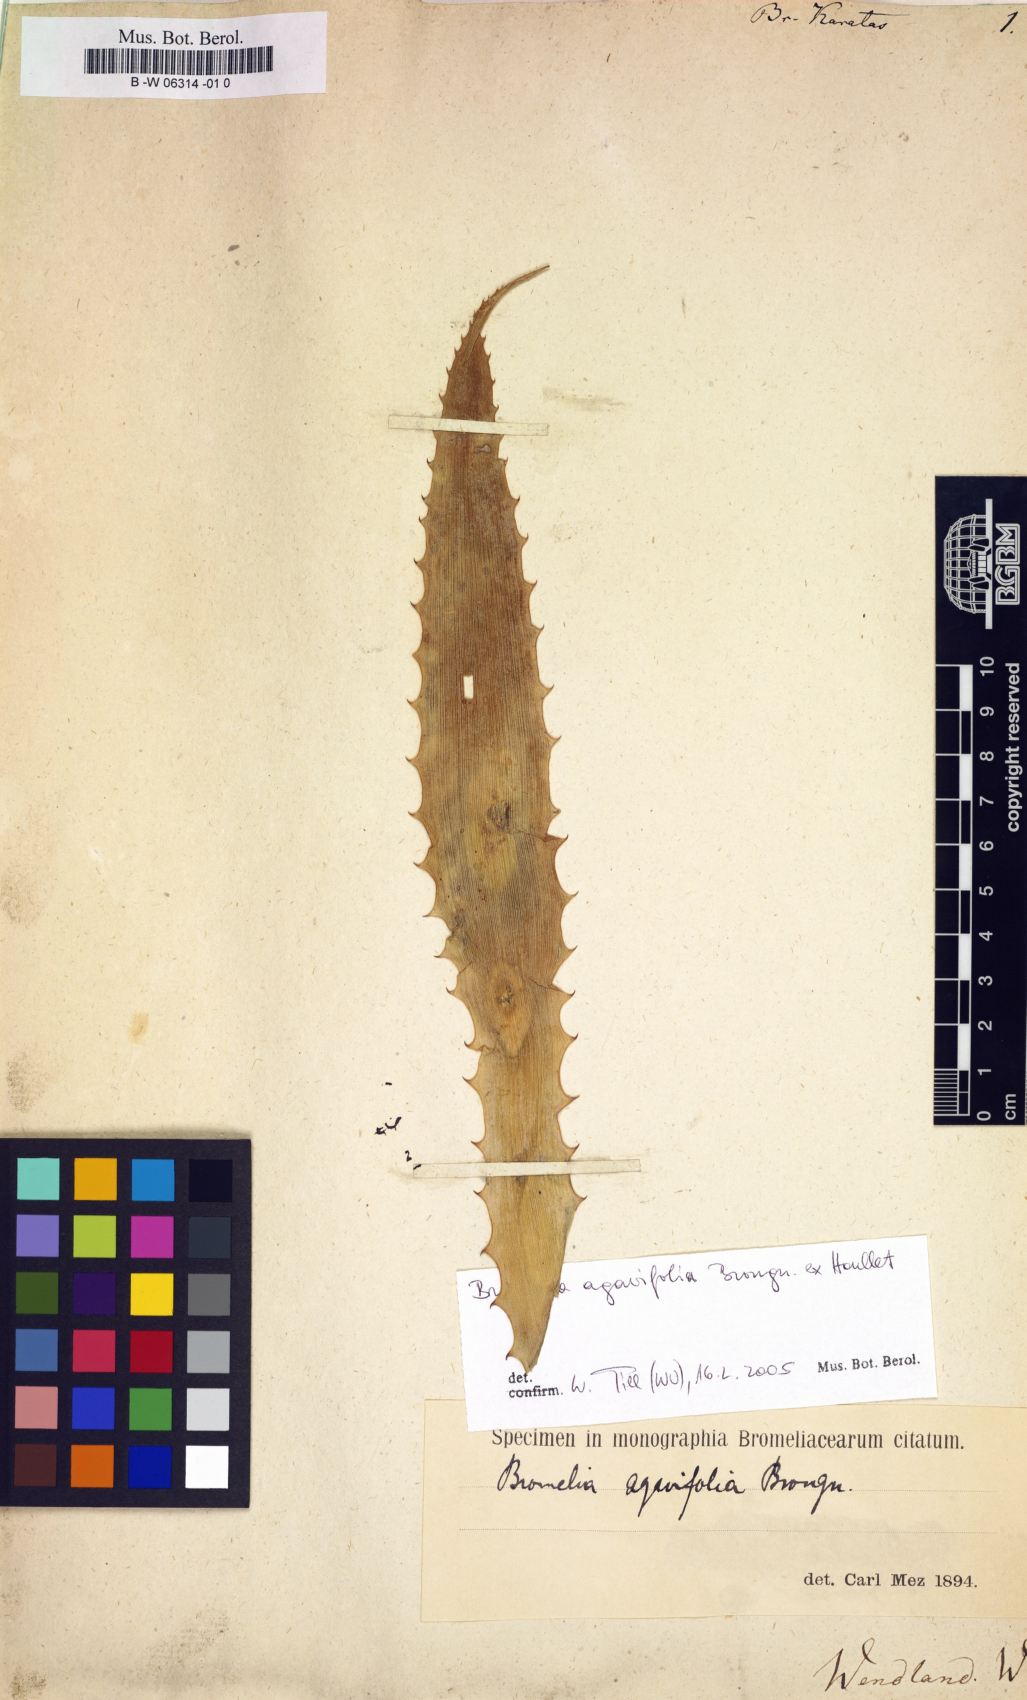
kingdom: Plantae
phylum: Tracheophyta
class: Liliopsida
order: Poales
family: Bromeliaceae
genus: Bromelia
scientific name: Bromelia karatas
